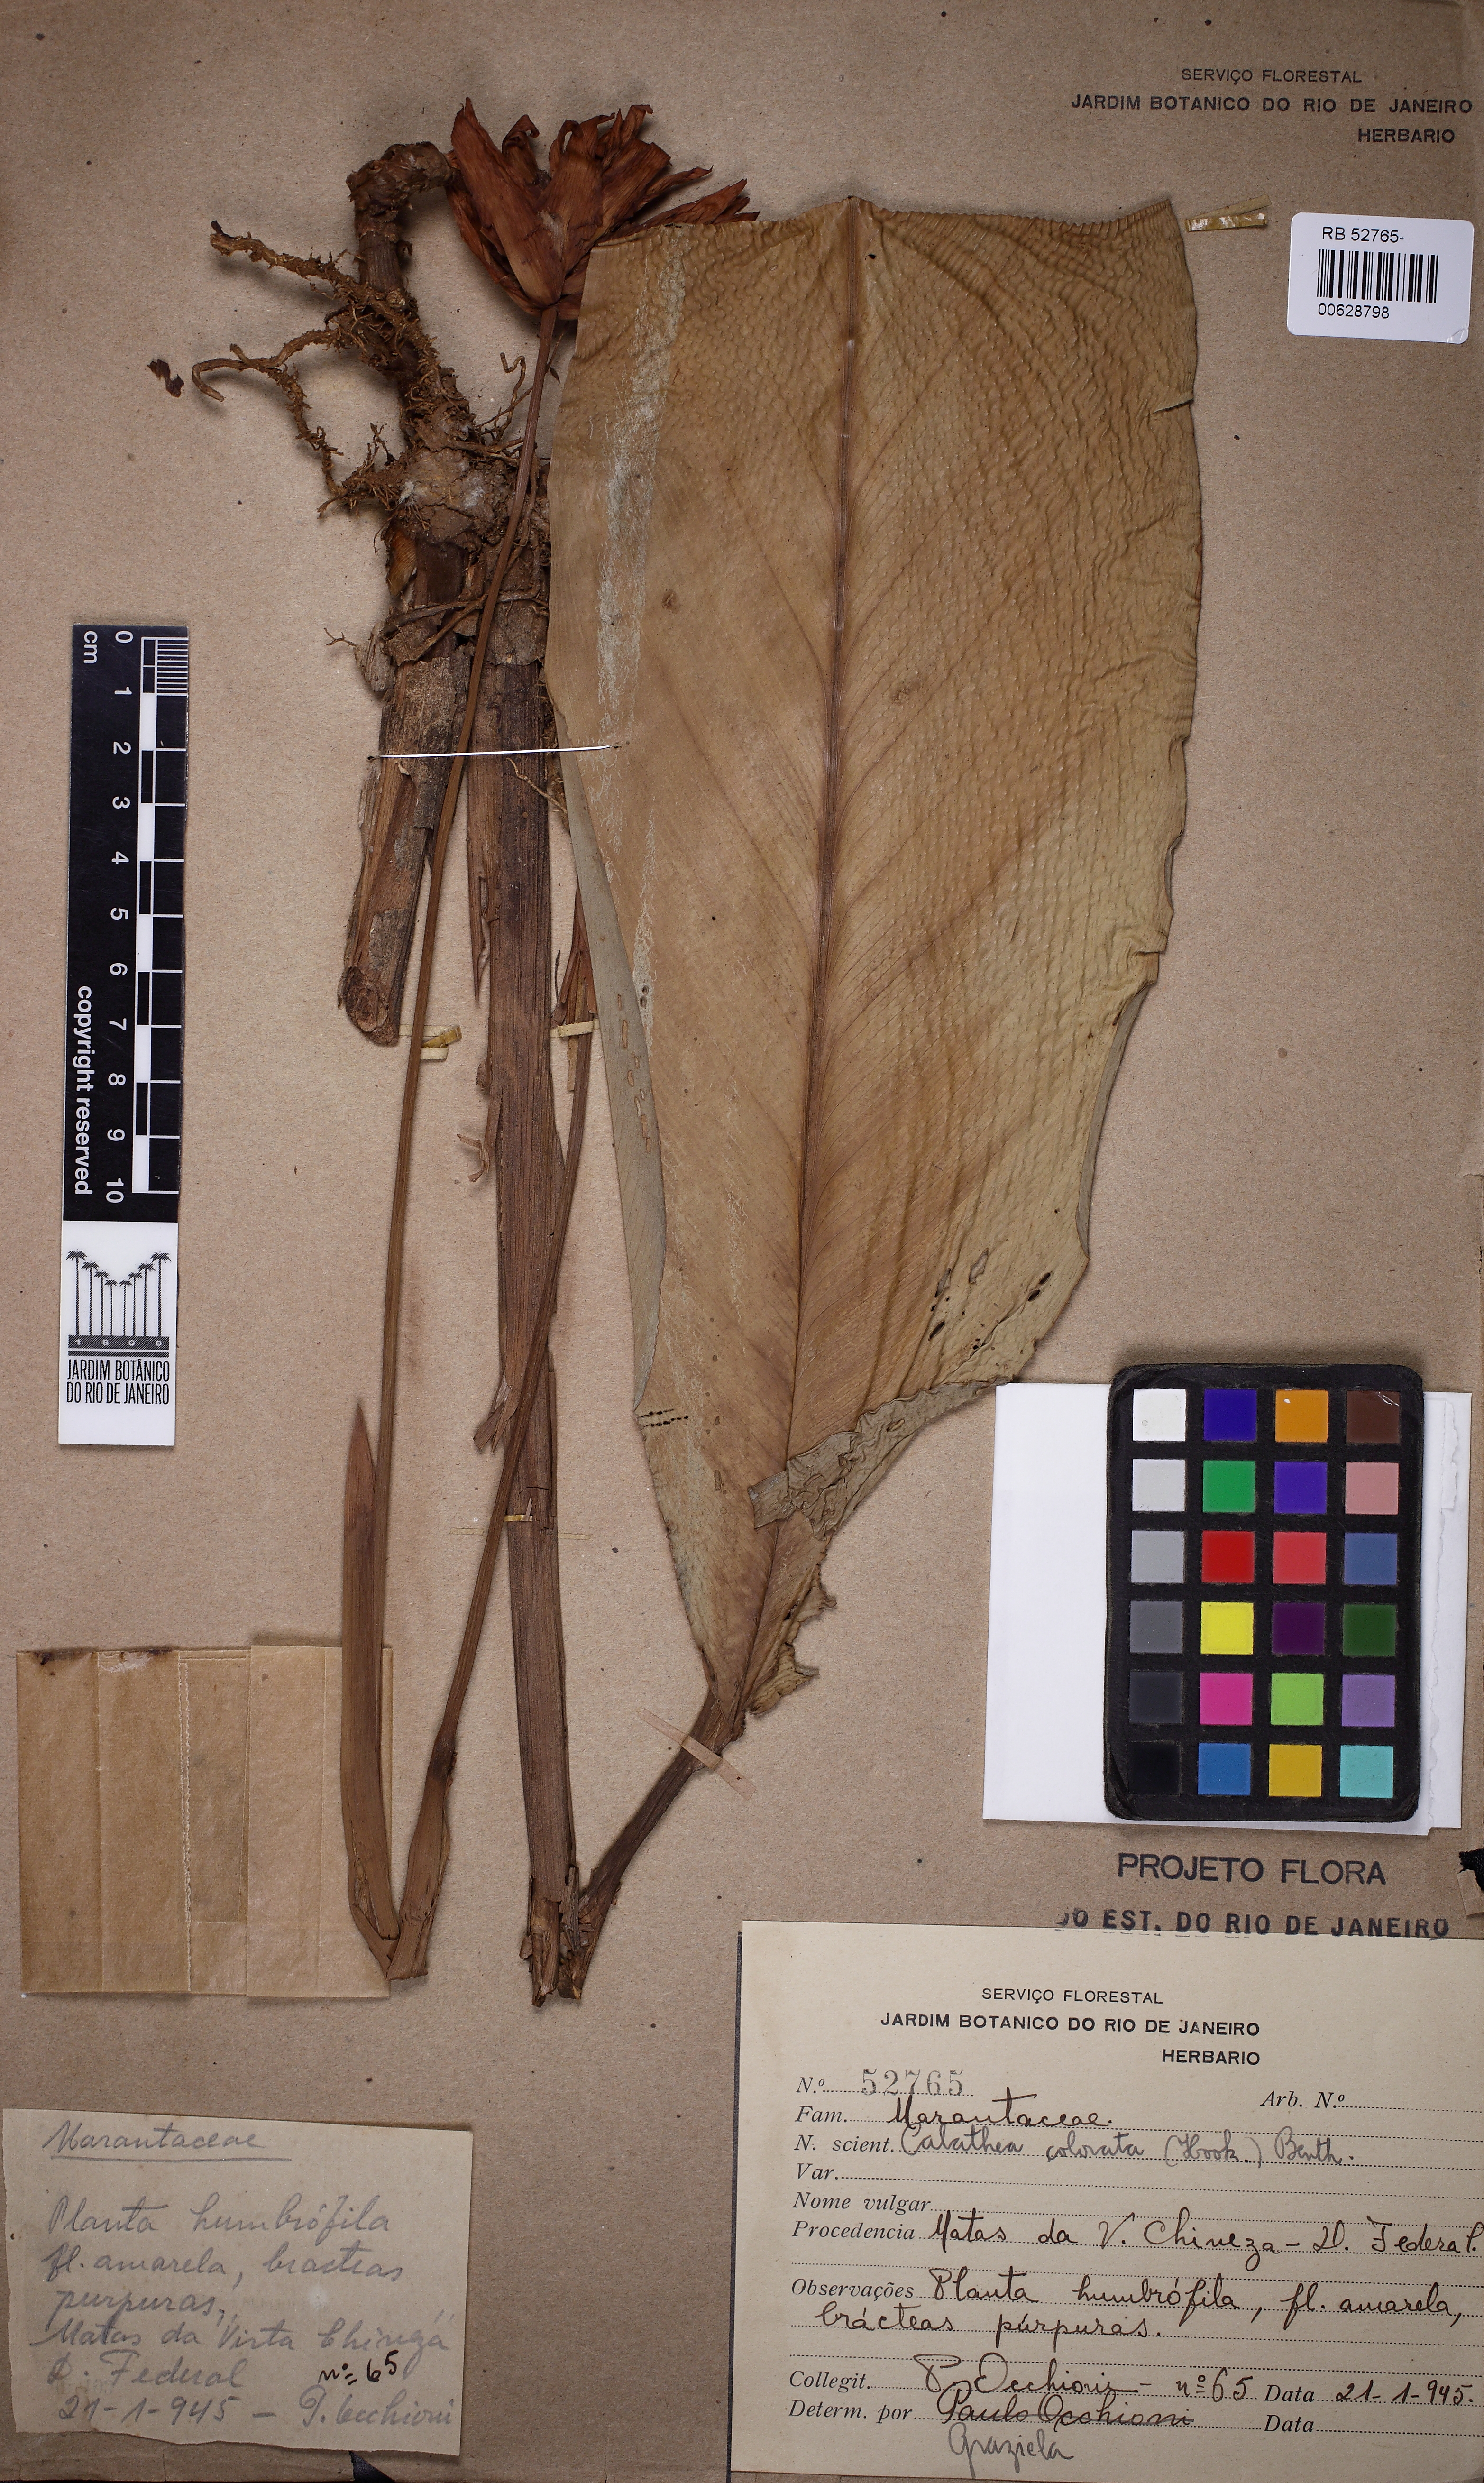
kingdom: Plantae
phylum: Tracheophyta
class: Liliopsida
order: Zingiberales
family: Marantaceae
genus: Goeppertia
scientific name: Goeppertia colorata
